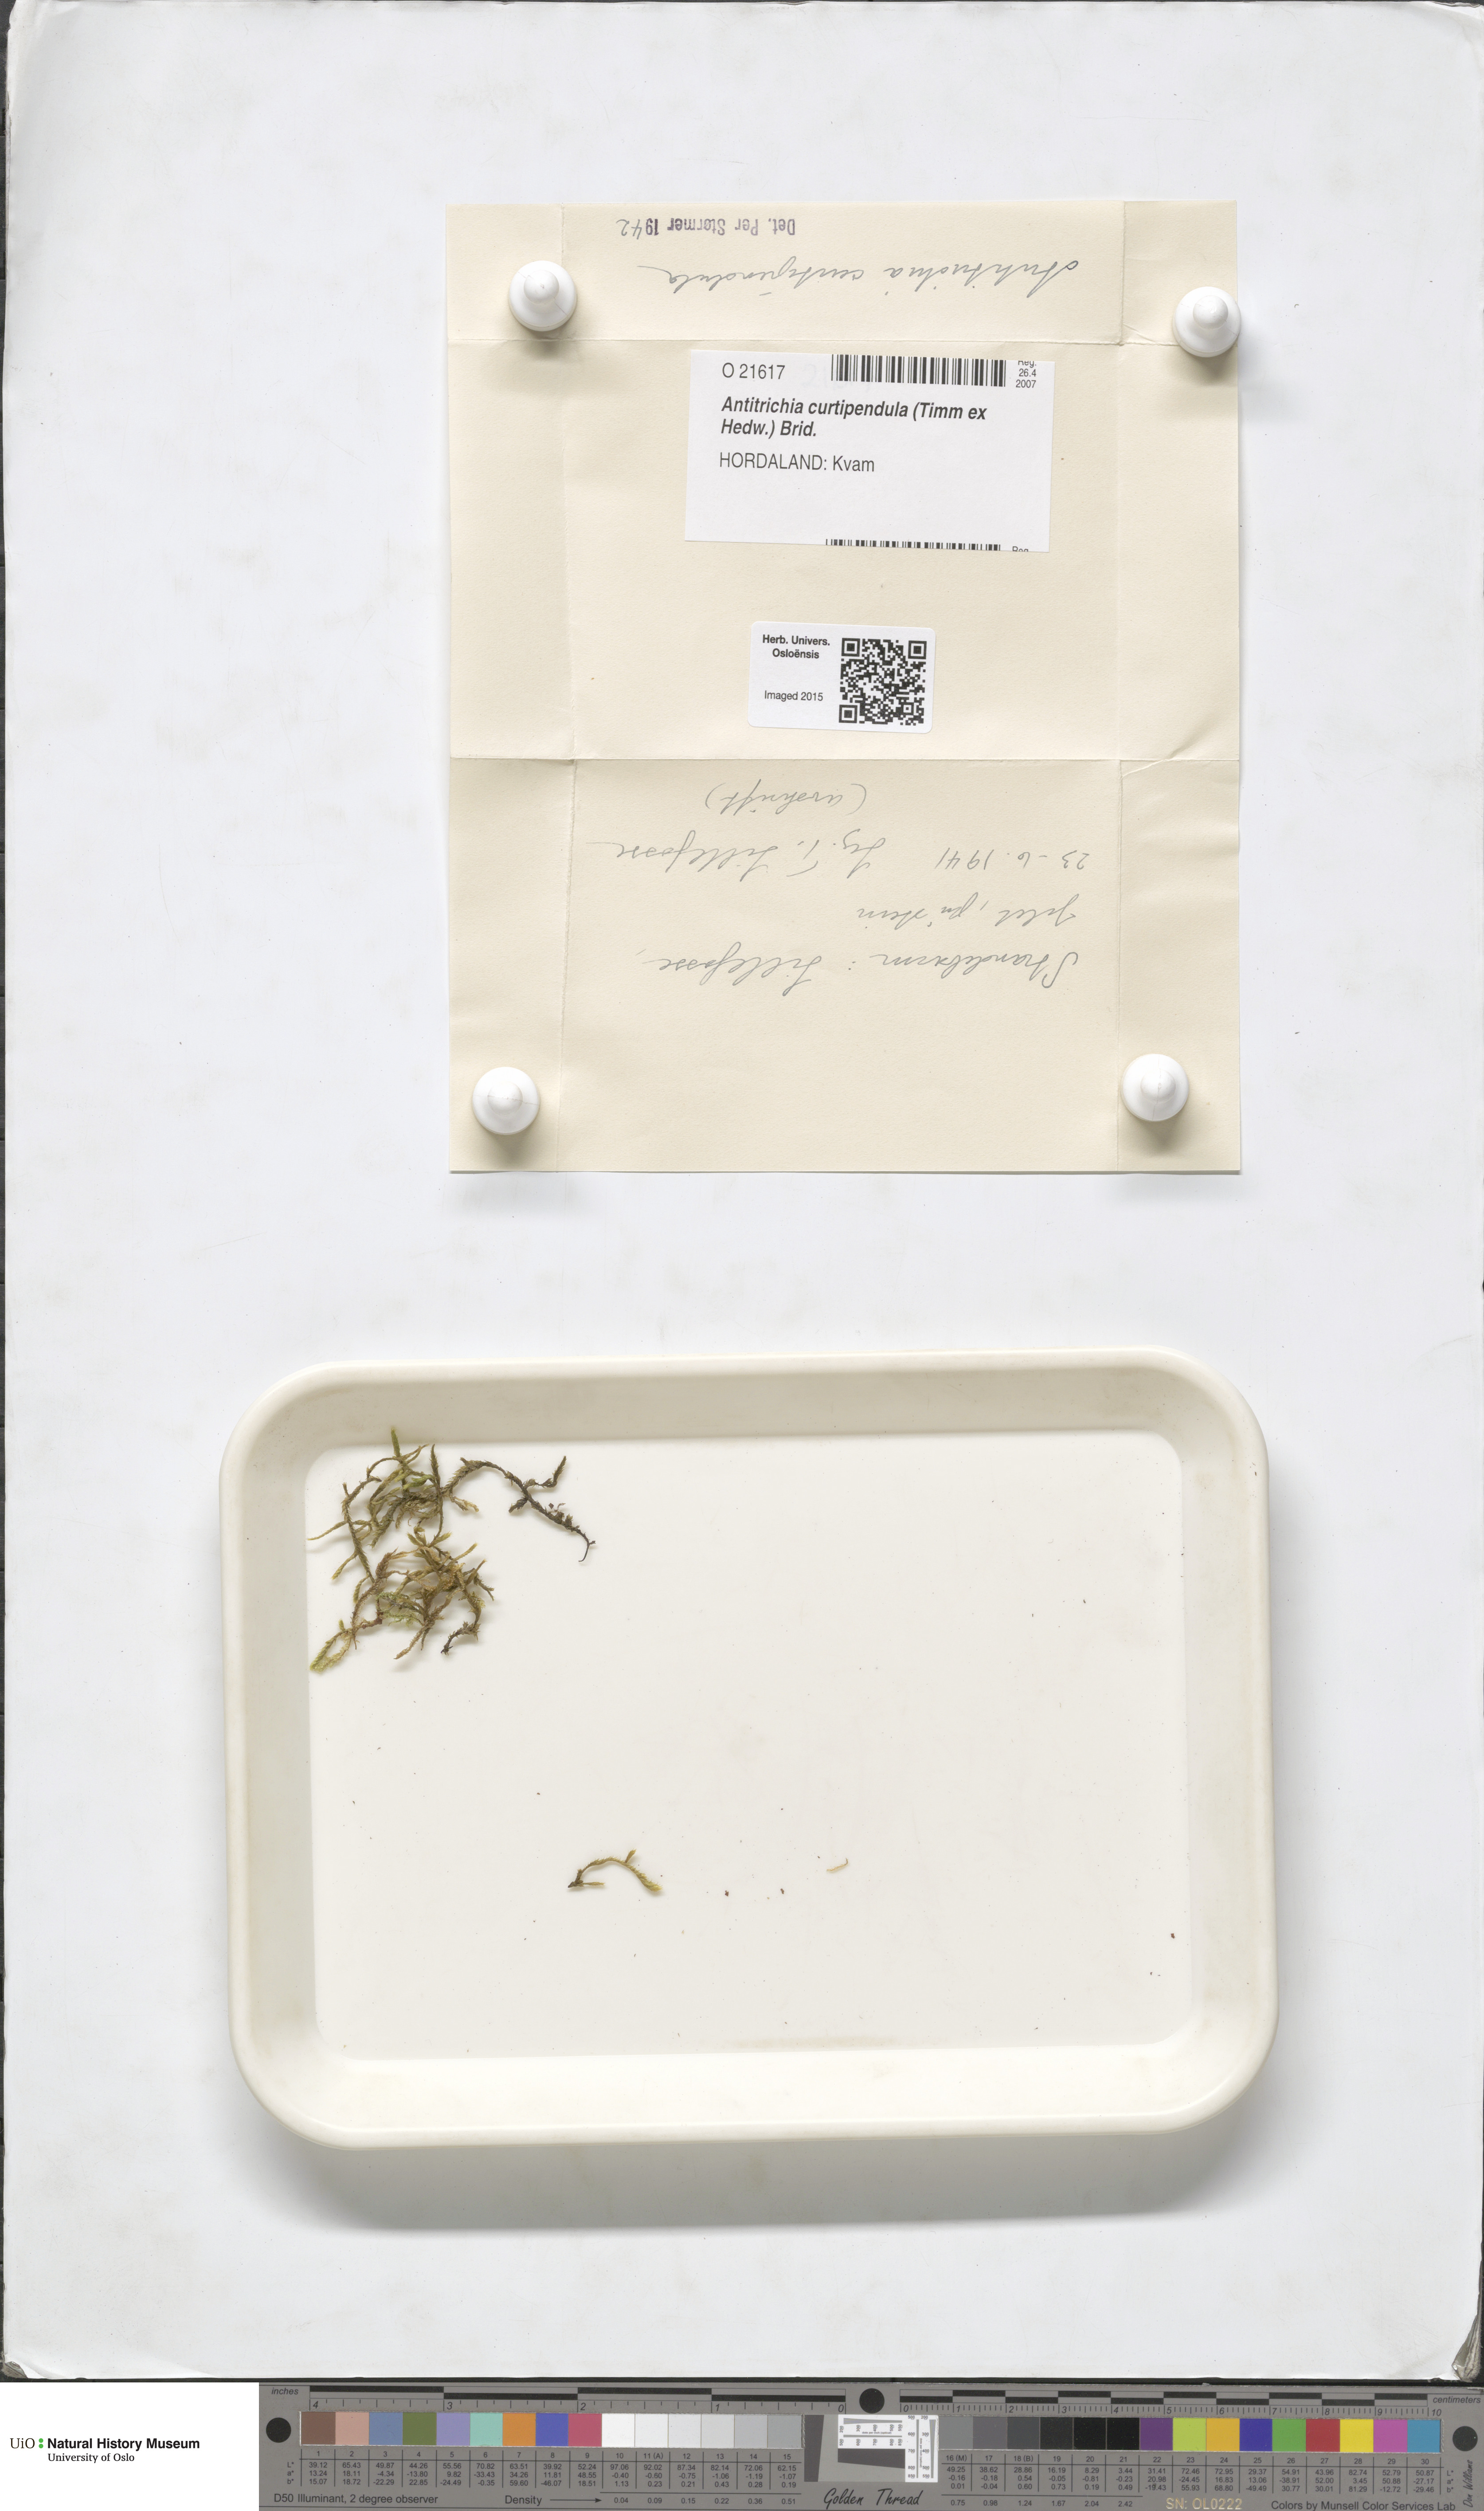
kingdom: Plantae
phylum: Bryophyta
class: Bryopsida
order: Hypnales
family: Antitrichiaceae
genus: Antitrichia
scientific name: Antitrichia curtipendula
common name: Pendulous wing-moss
